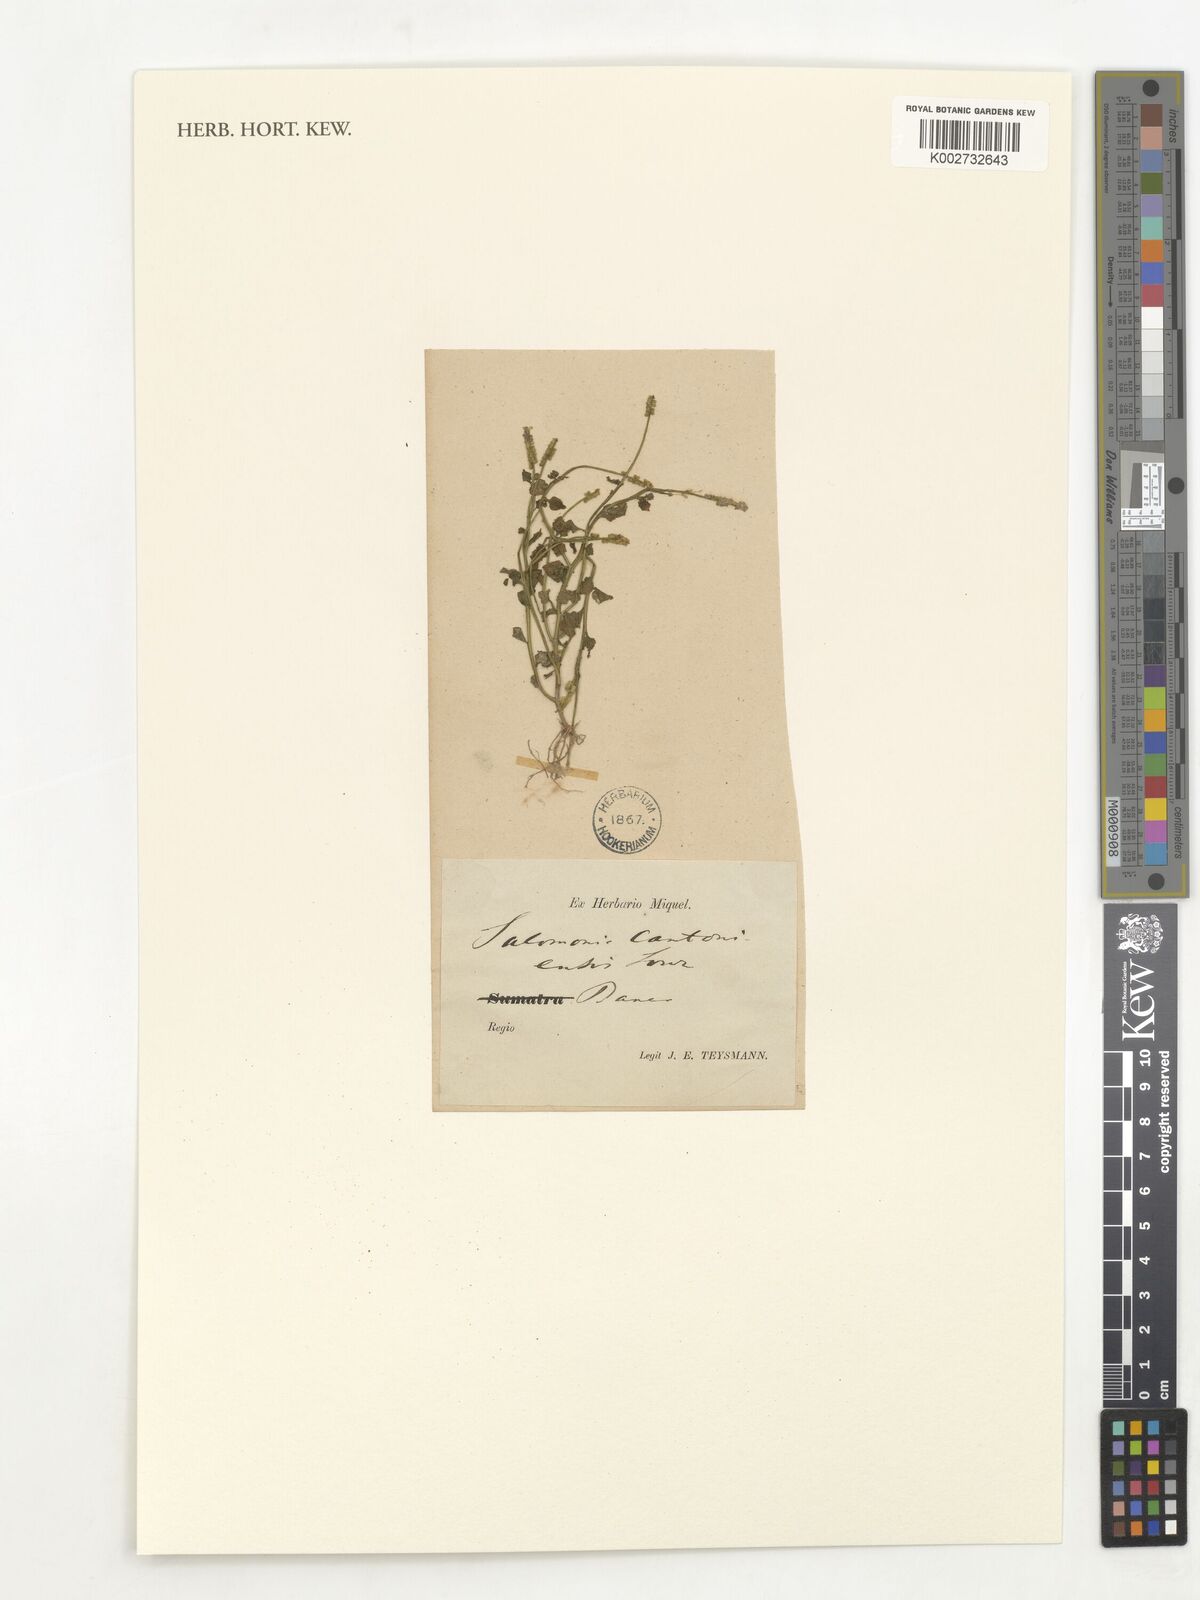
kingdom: Plantae
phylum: Tracheophyta
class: Magnoliopsida
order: Fabales
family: Polygalaceae
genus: Salomonia
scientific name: Salomonia cantoniensis
